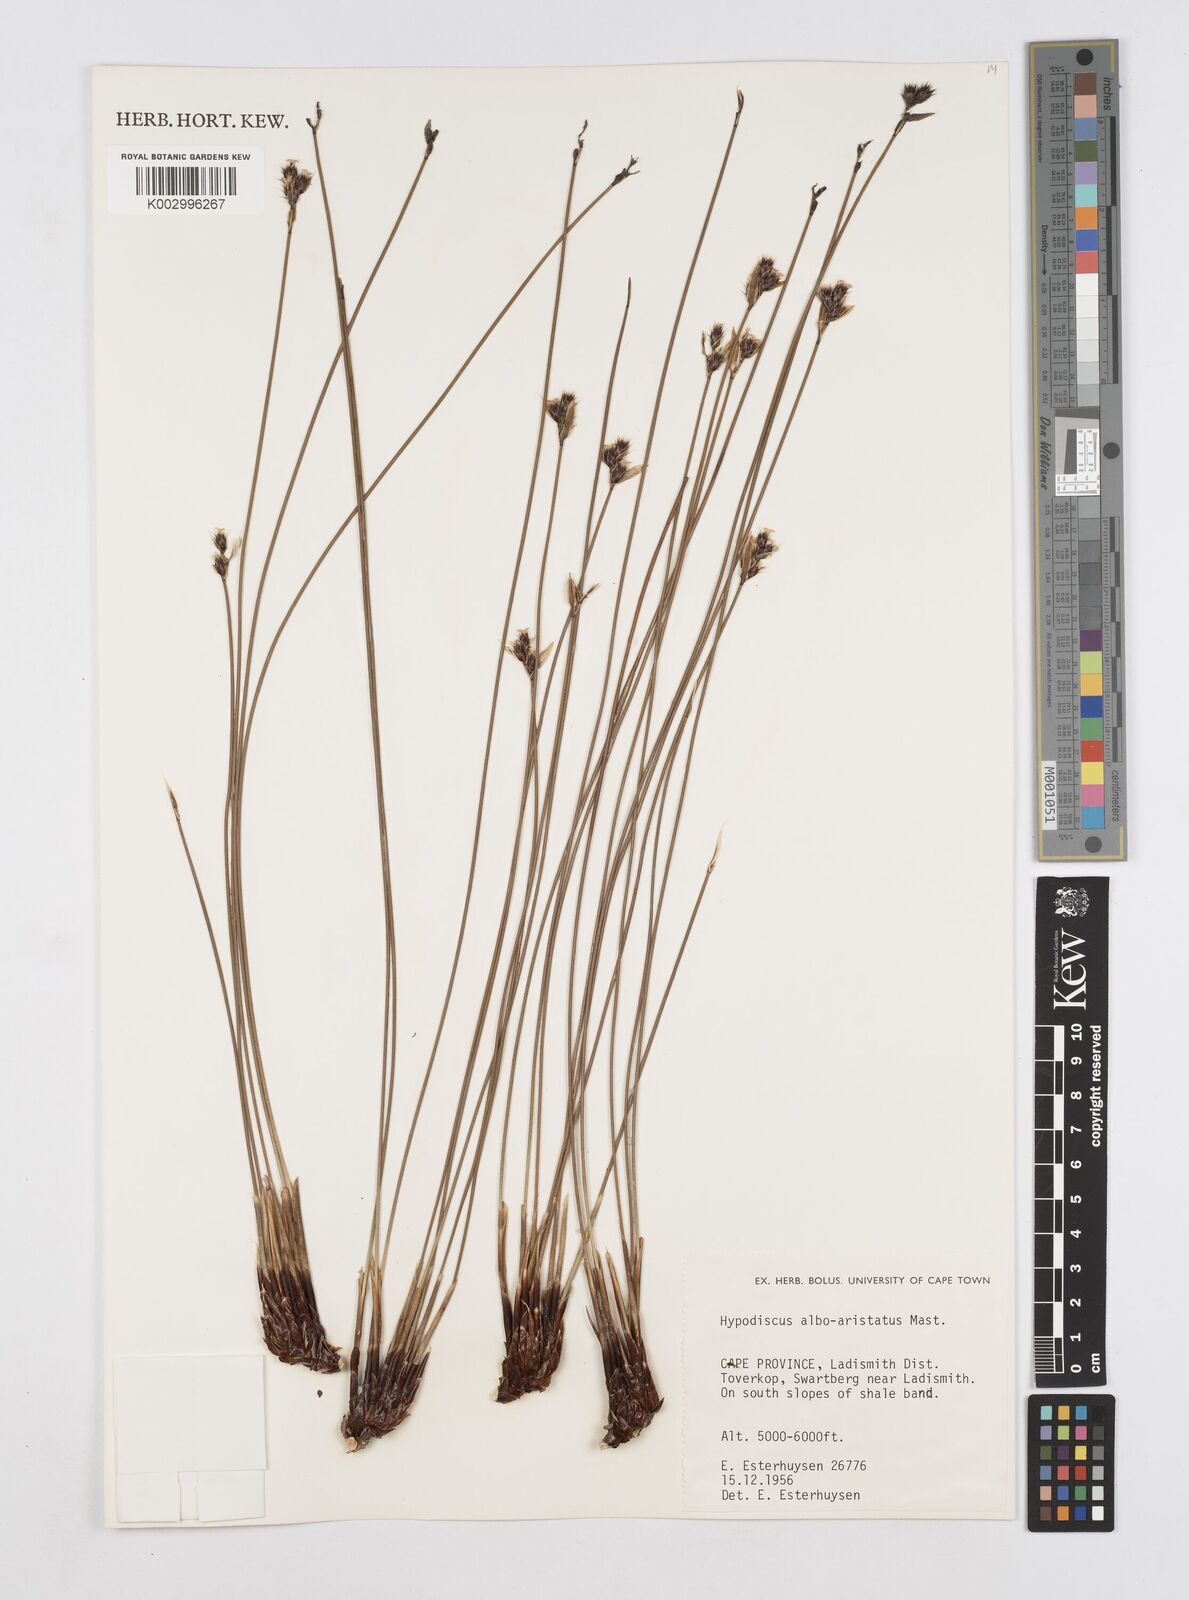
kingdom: Plantae
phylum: Tracheophyta
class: Liliopsida
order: Poales
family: Restionaceae
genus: Hypodiscus
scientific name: Hypodiscus alboaristatus
